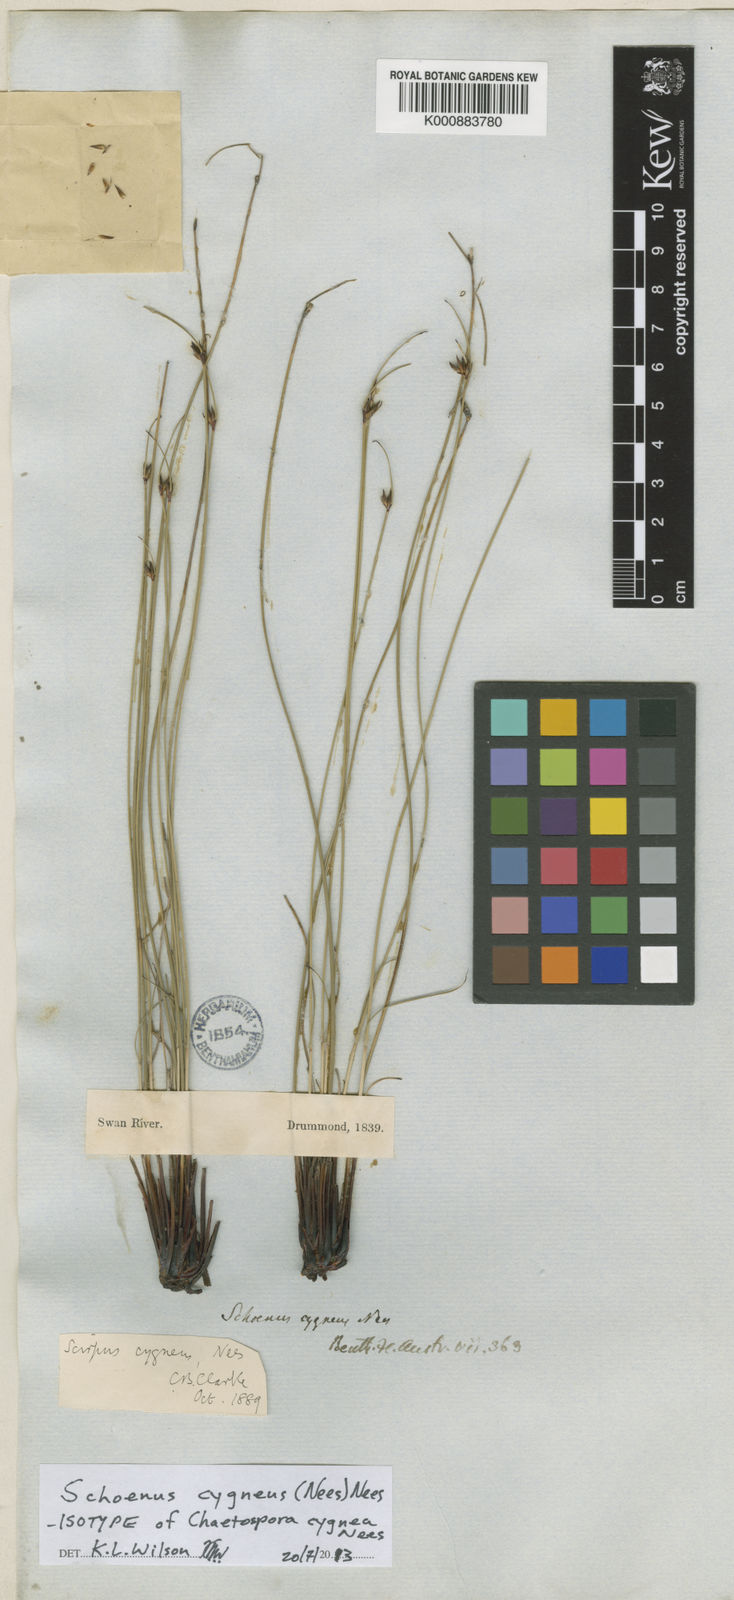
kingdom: Plantae
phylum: Tracheophyta
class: Liliopsida
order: Poales
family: Cyperaceae
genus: Schoenus
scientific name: Schoenus cygneus
